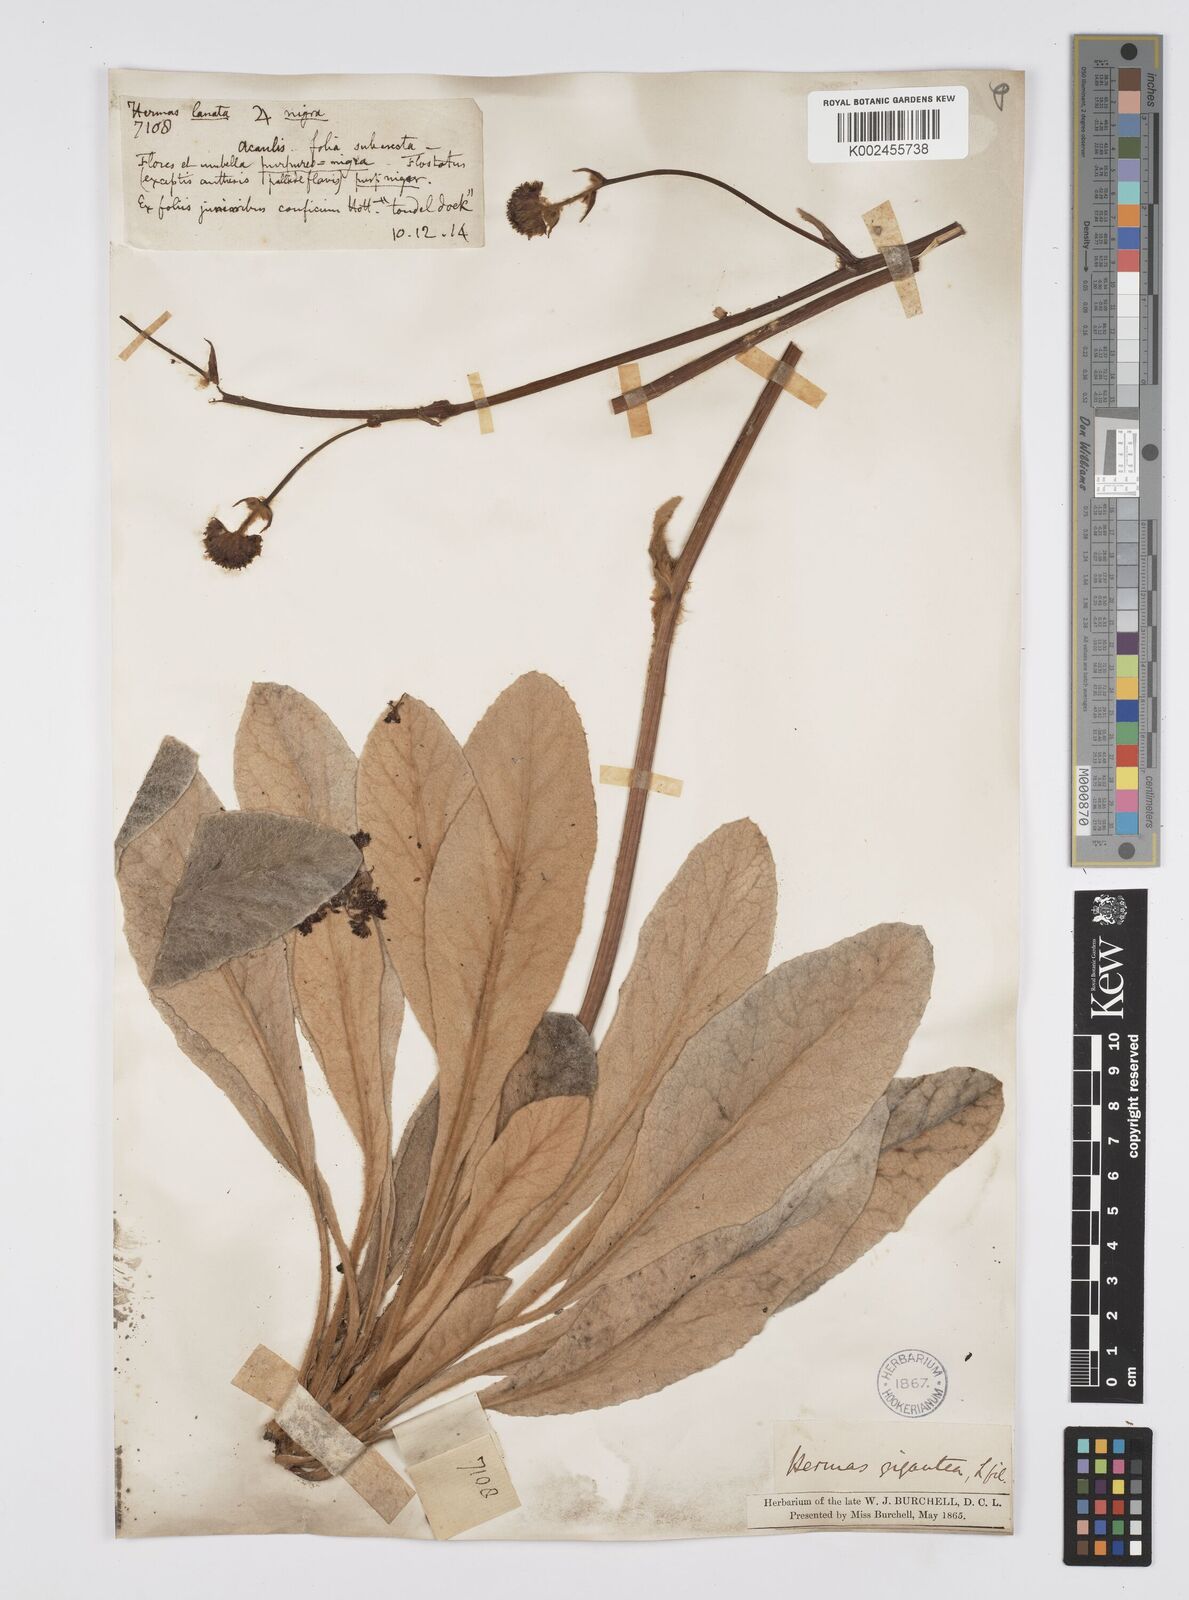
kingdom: Plantae
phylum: Tracheophyta
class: Magnoliopsida
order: Apiales
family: Apiaceae
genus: Hermas
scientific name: Hermas gigantea
